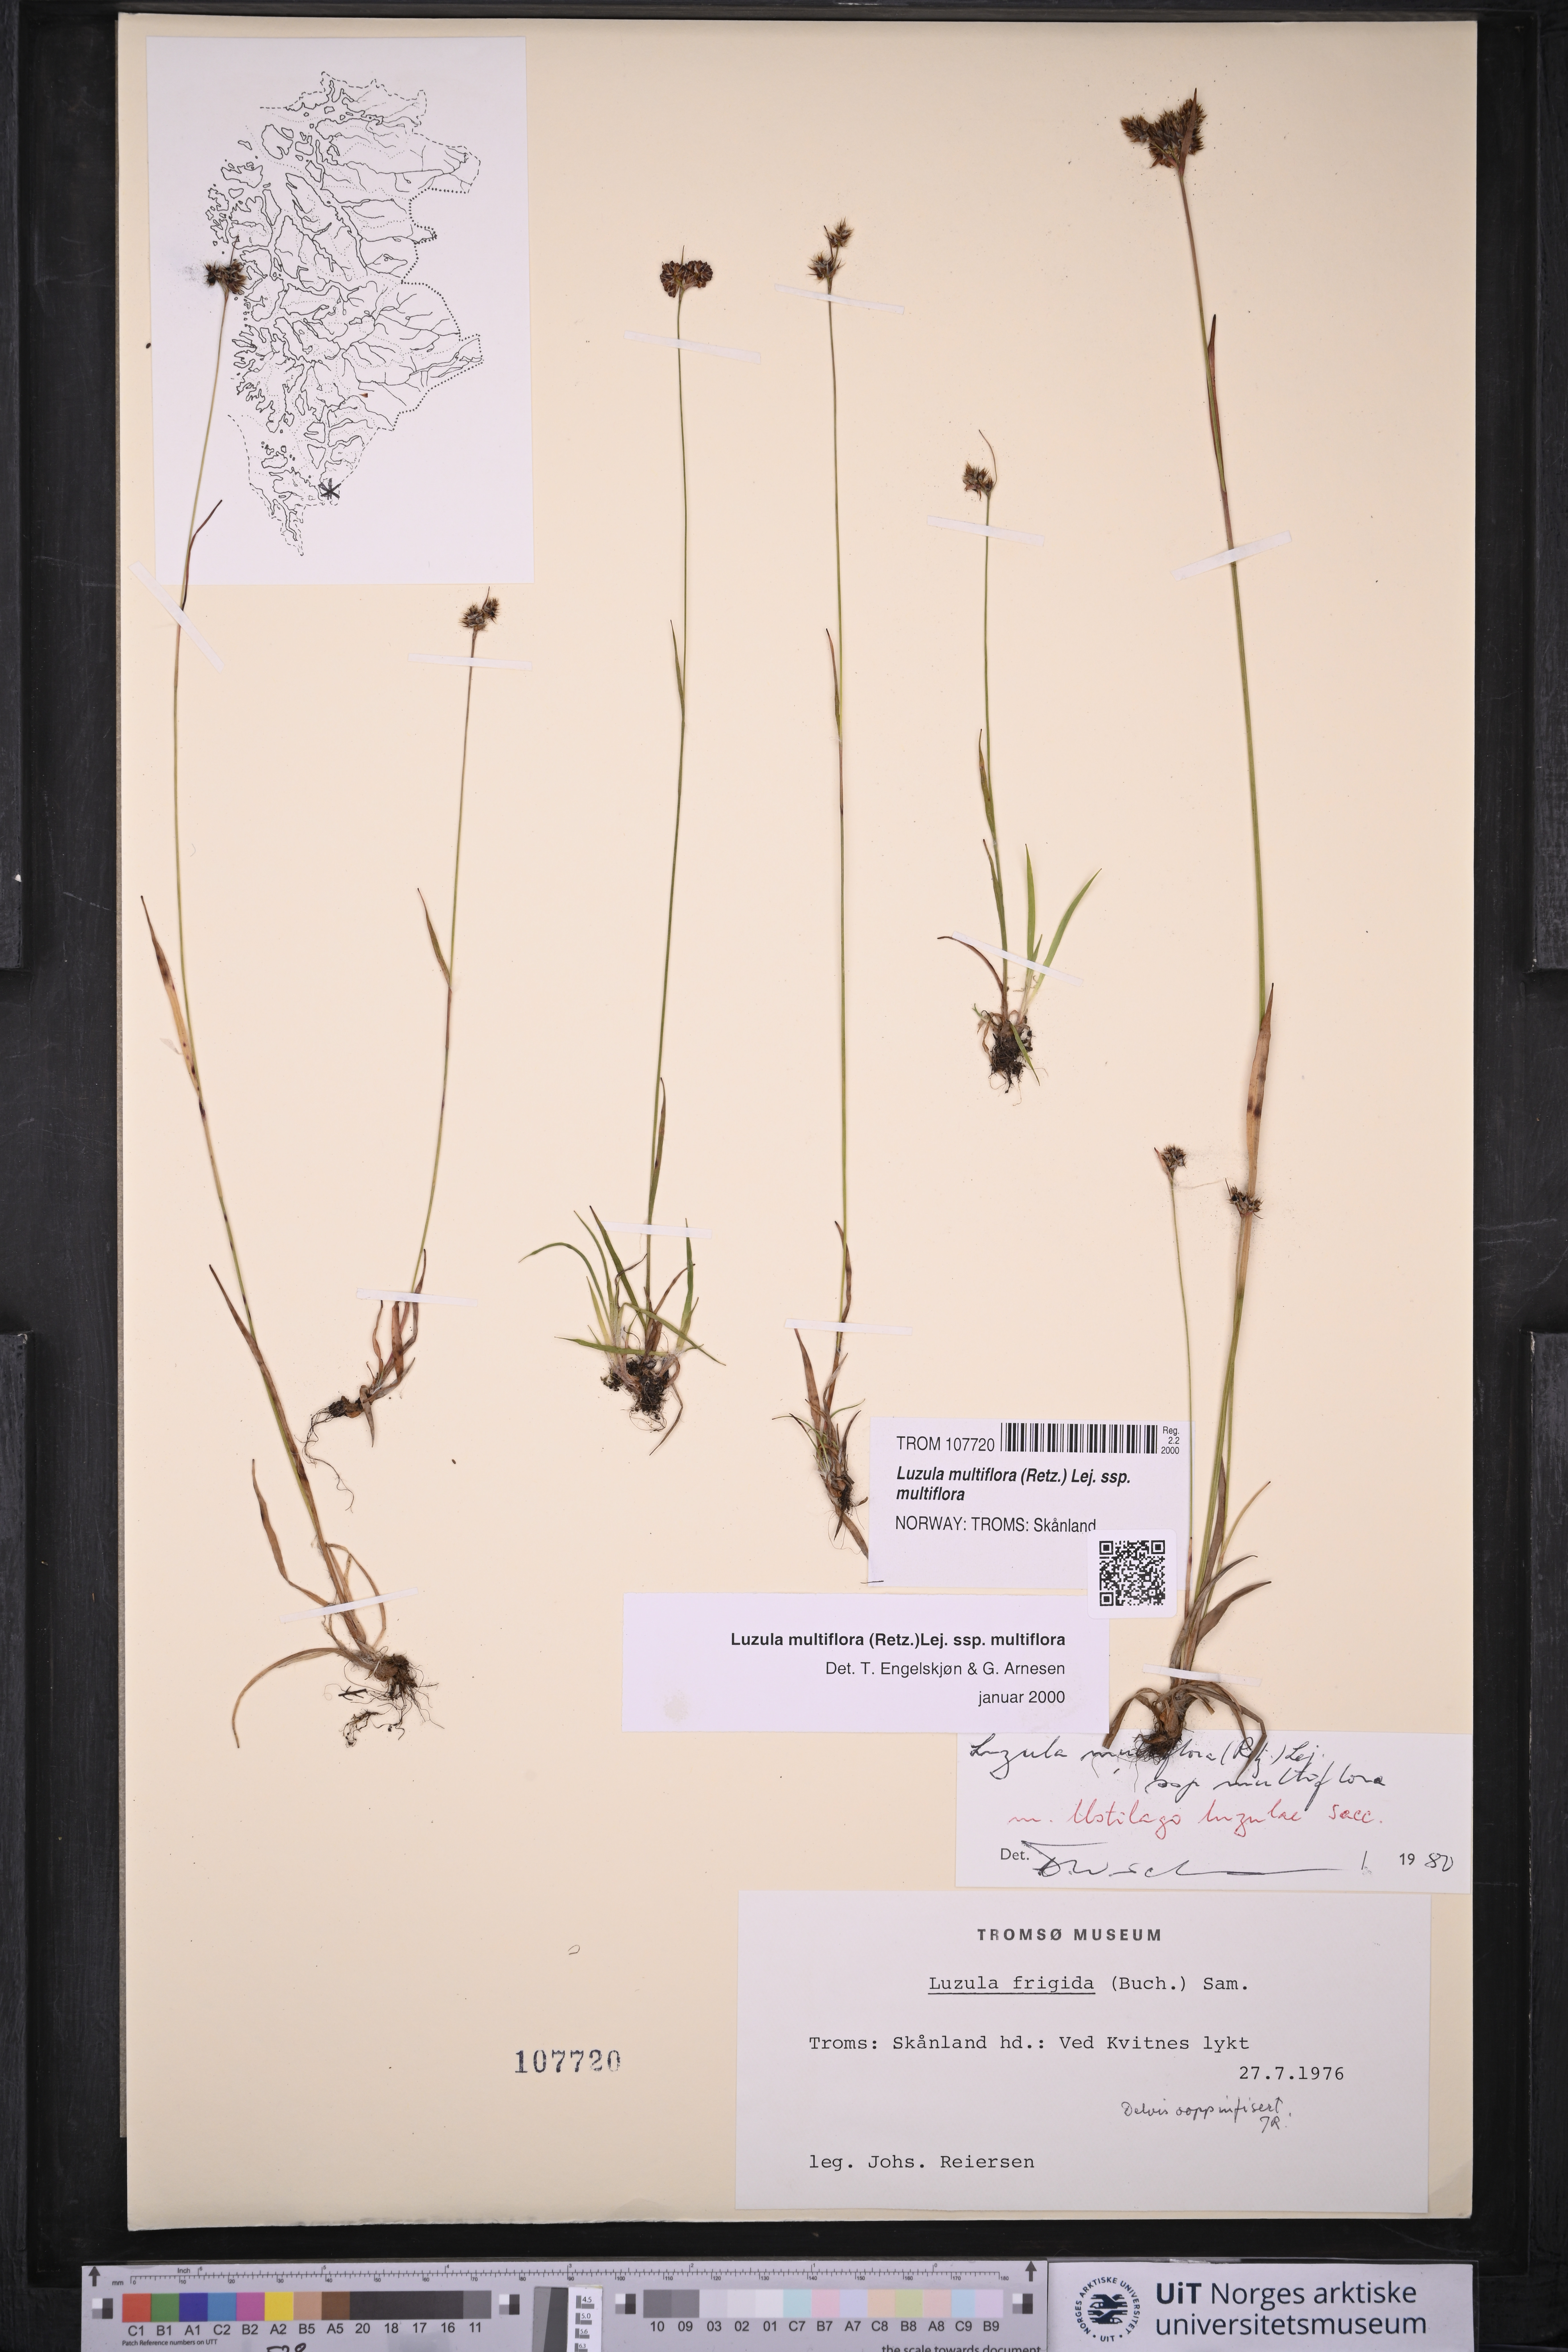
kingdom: Plantae
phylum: Tracheophyta
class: Liliopsida
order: Poales
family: Juncaceae
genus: Luzula
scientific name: Luzula multiflora
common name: Heath wood-rush
